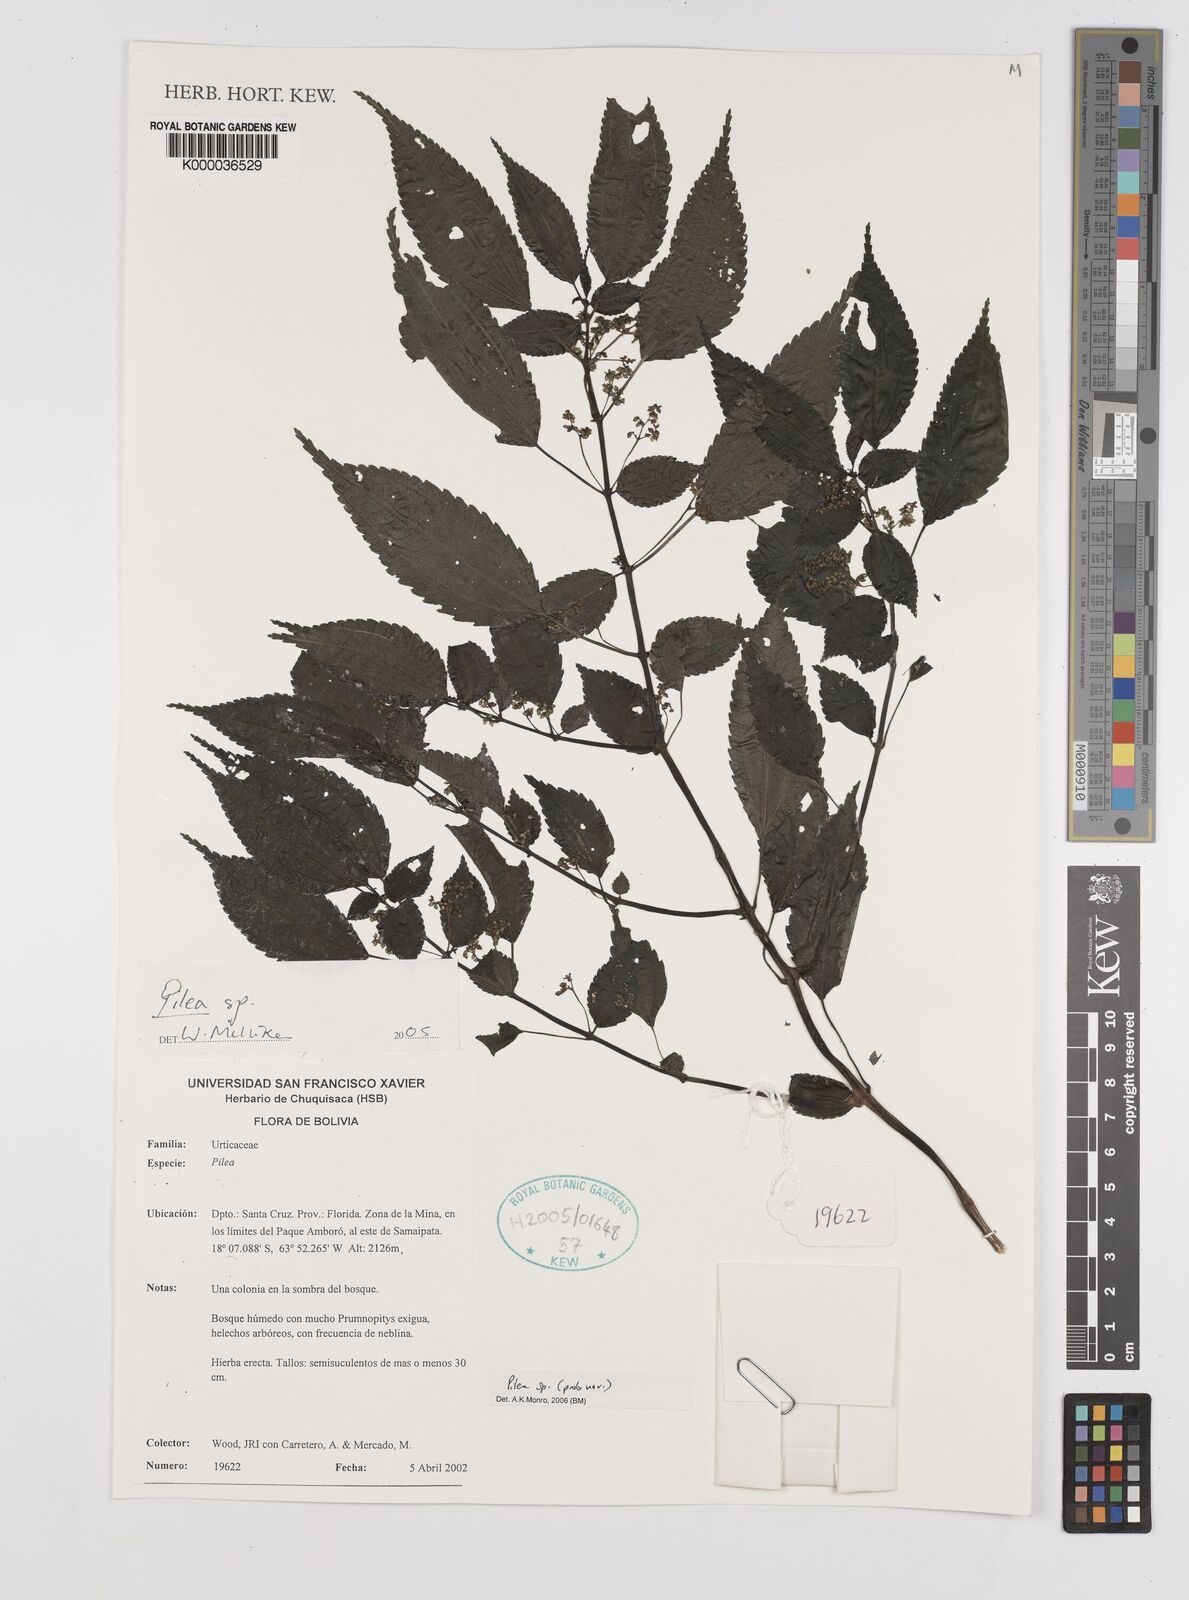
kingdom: Plantae
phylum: Tracheophyta
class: Magnoliopsida
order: Rosales
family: Urticaceae
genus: Pilea
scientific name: Pilea
